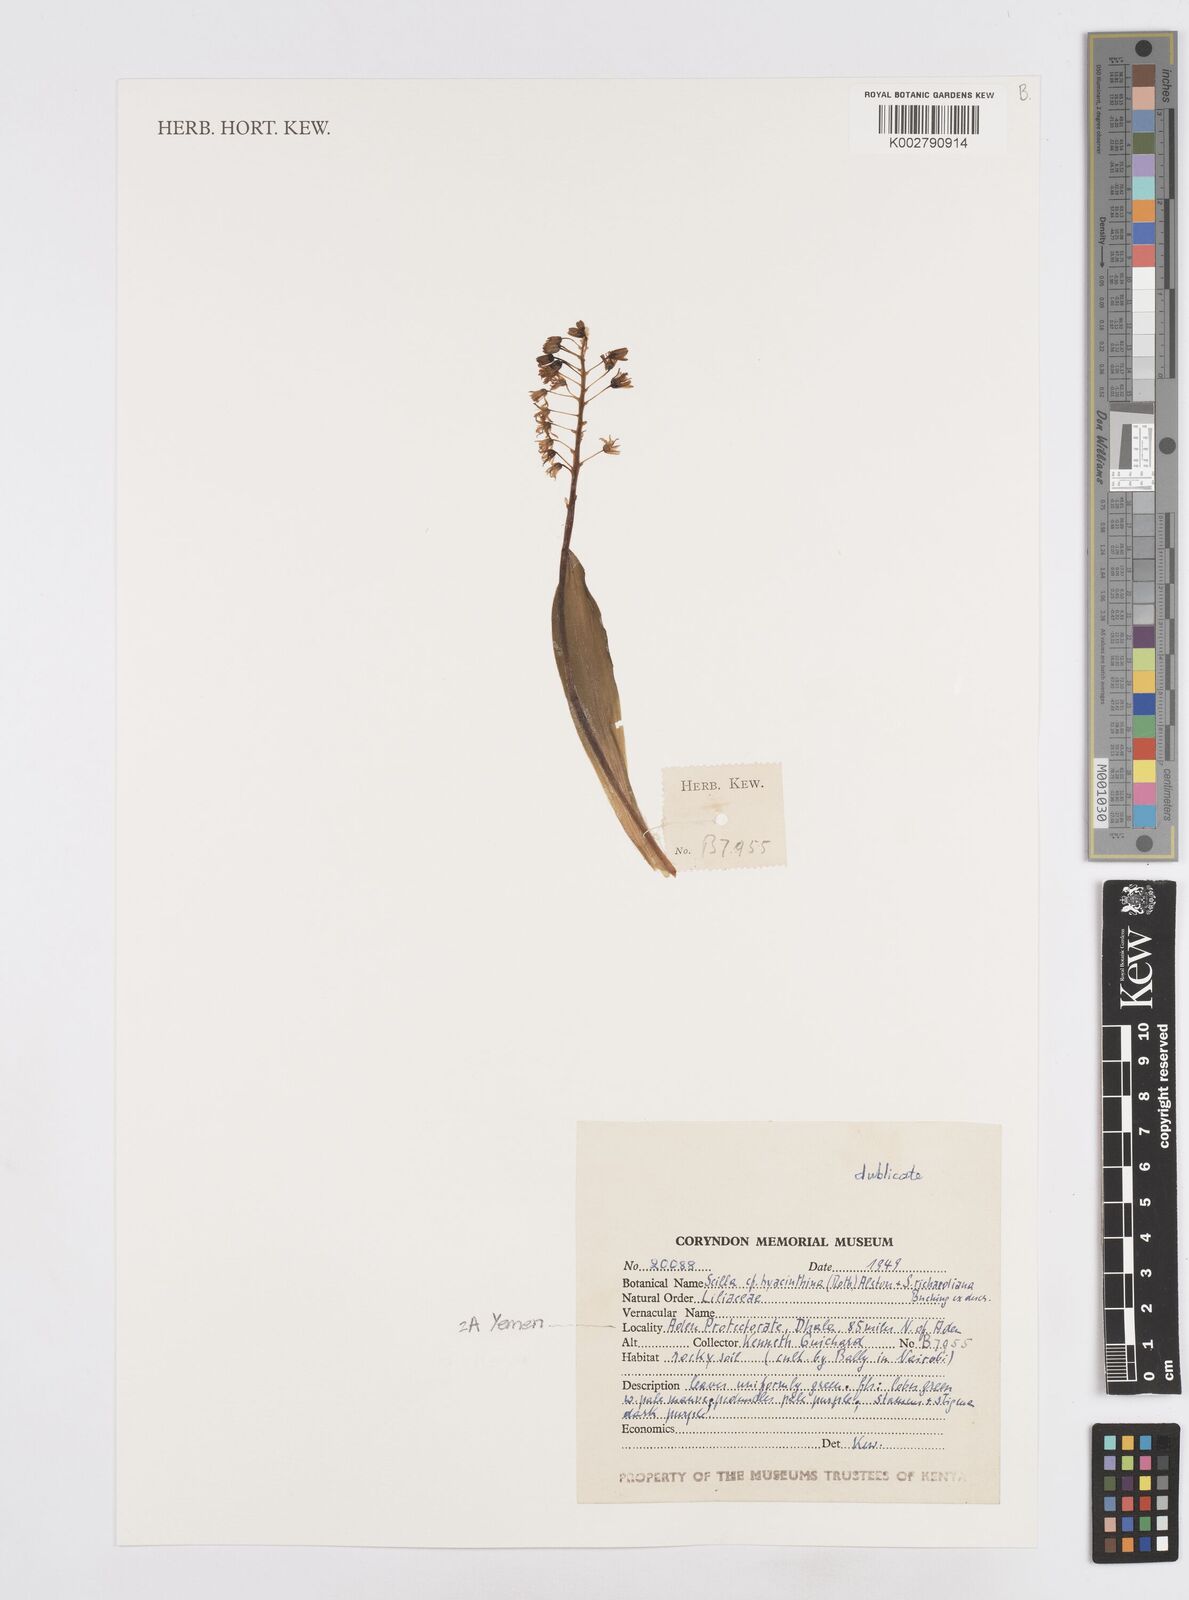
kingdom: Plantae
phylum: Tracheophyta
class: Liliopsida
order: Asparagales
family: Asparagaceae
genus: Ledebouria
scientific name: Ledebouria revoluta
